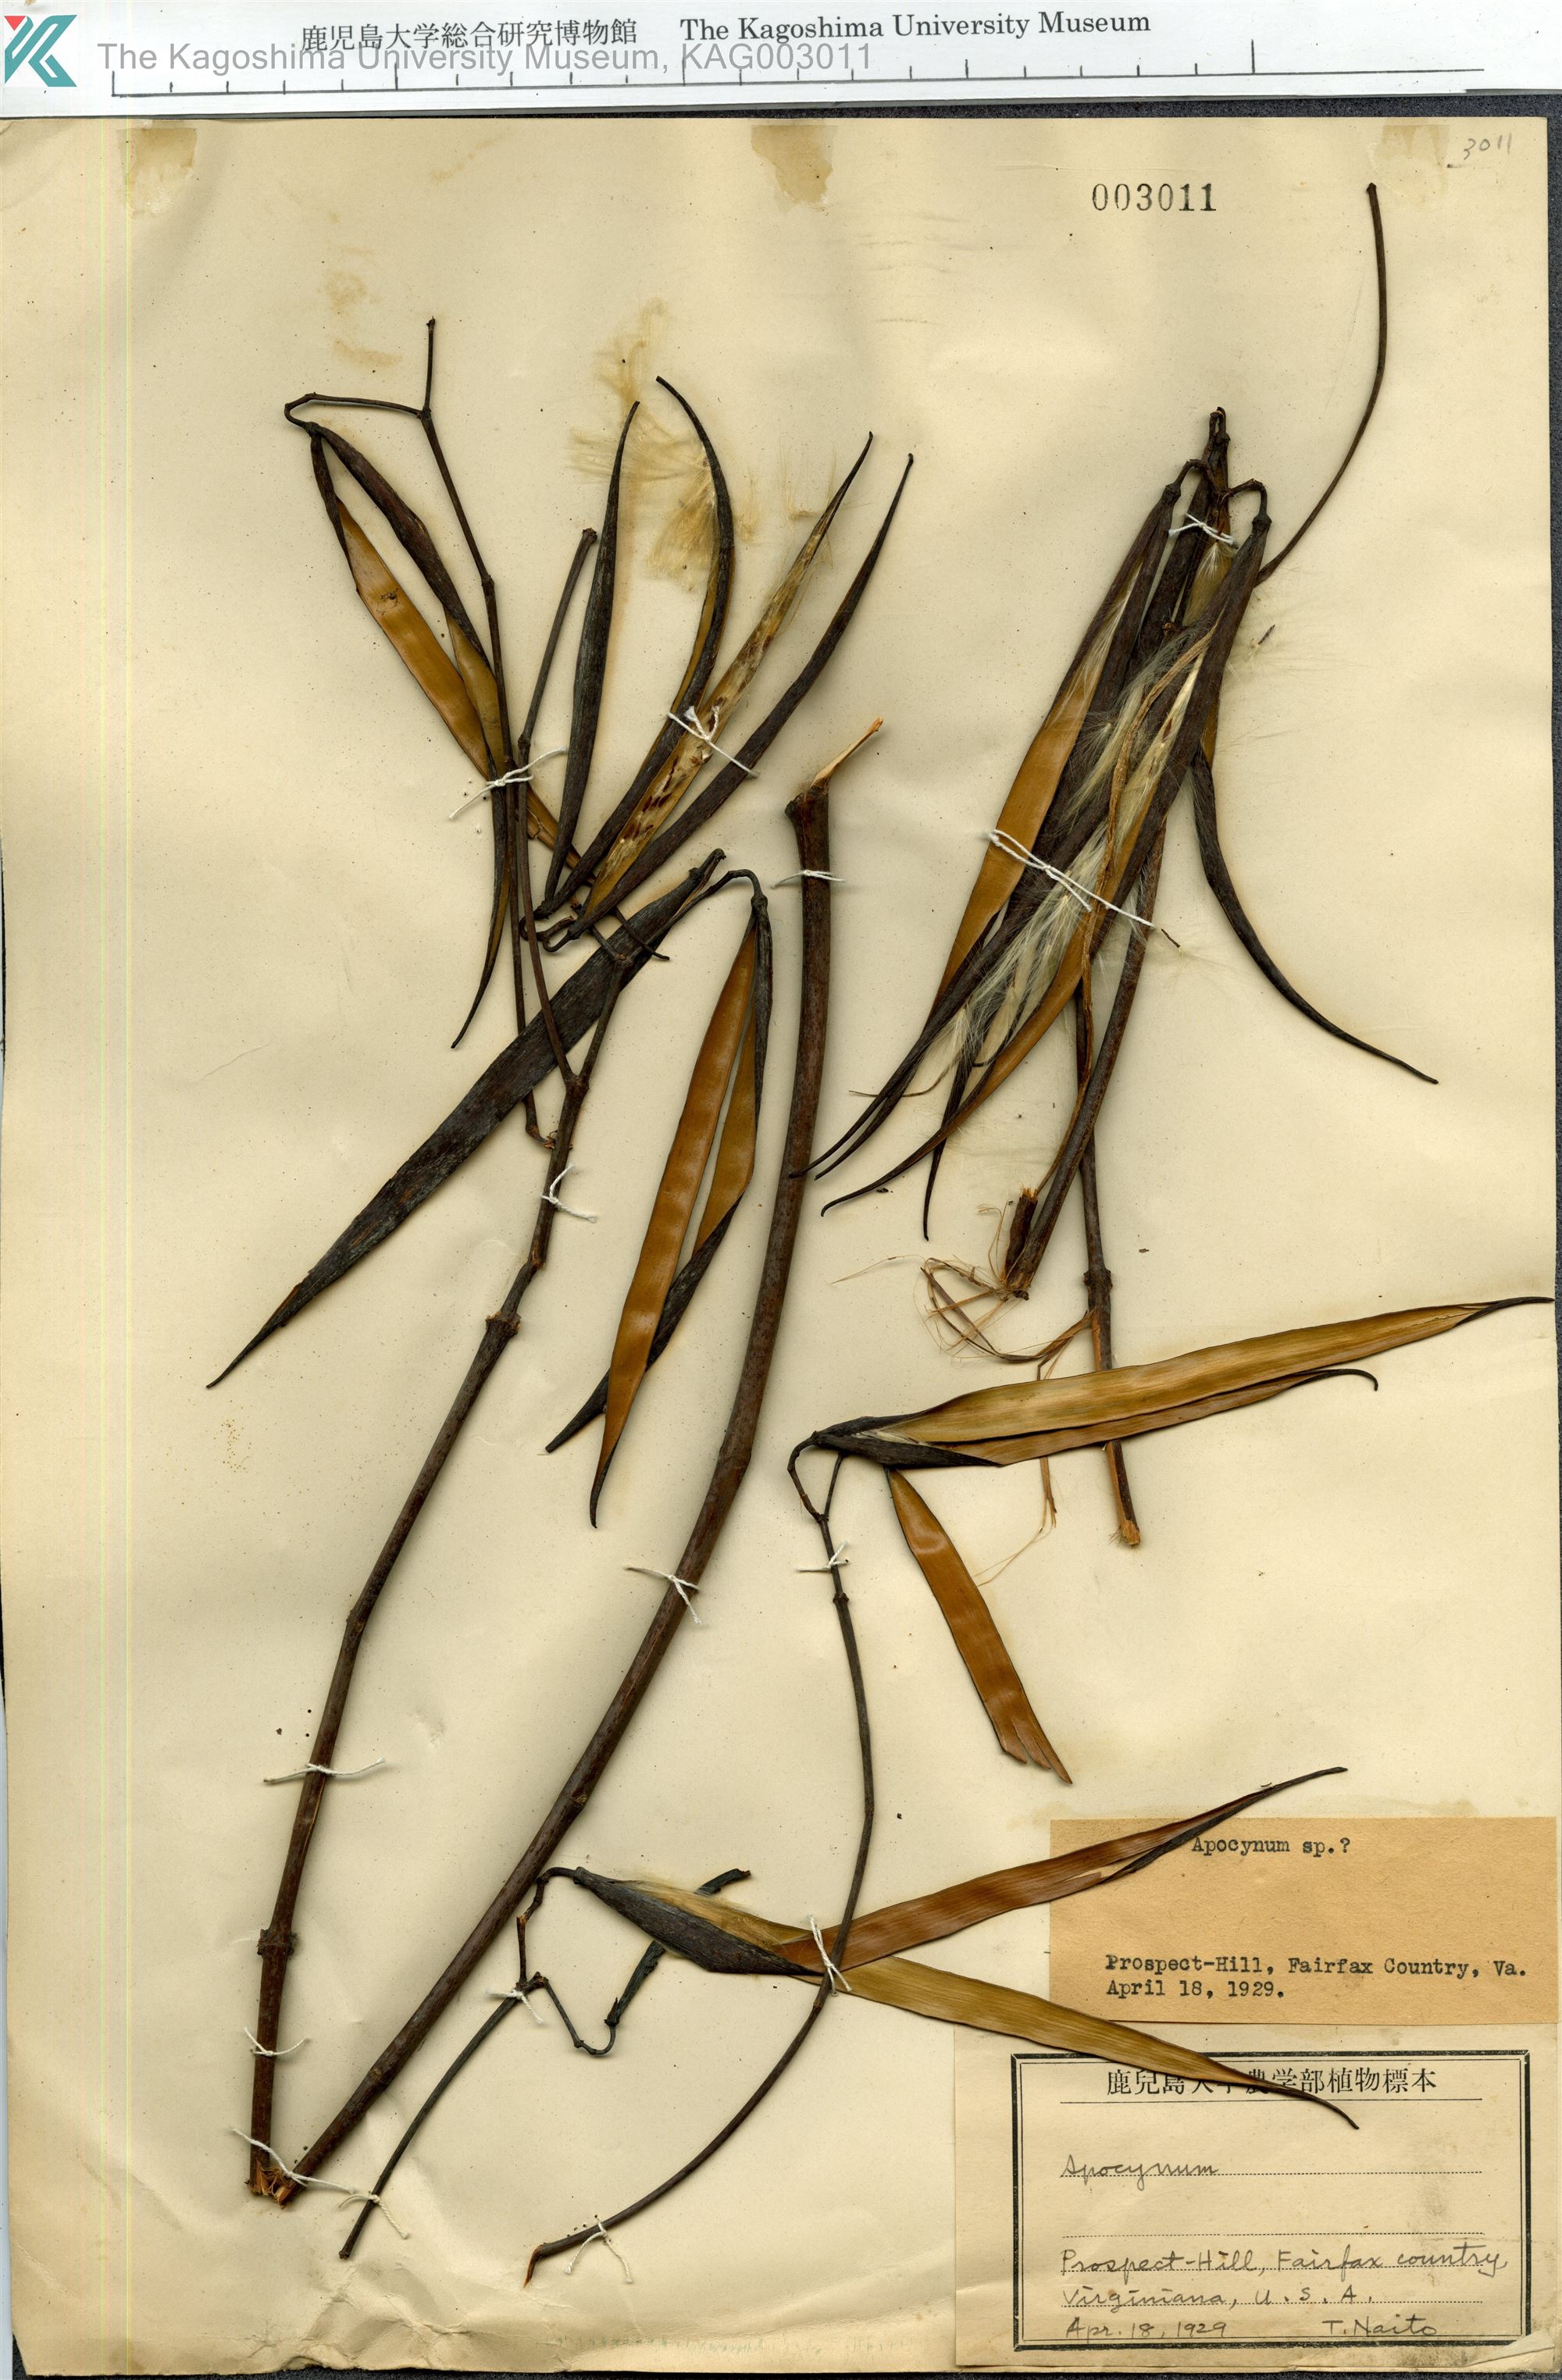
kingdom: Plantae
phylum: Tracheophyta
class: Magnoliopsida
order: Gentianales
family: Apocynaceae
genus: Apocynum
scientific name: Apocynum
